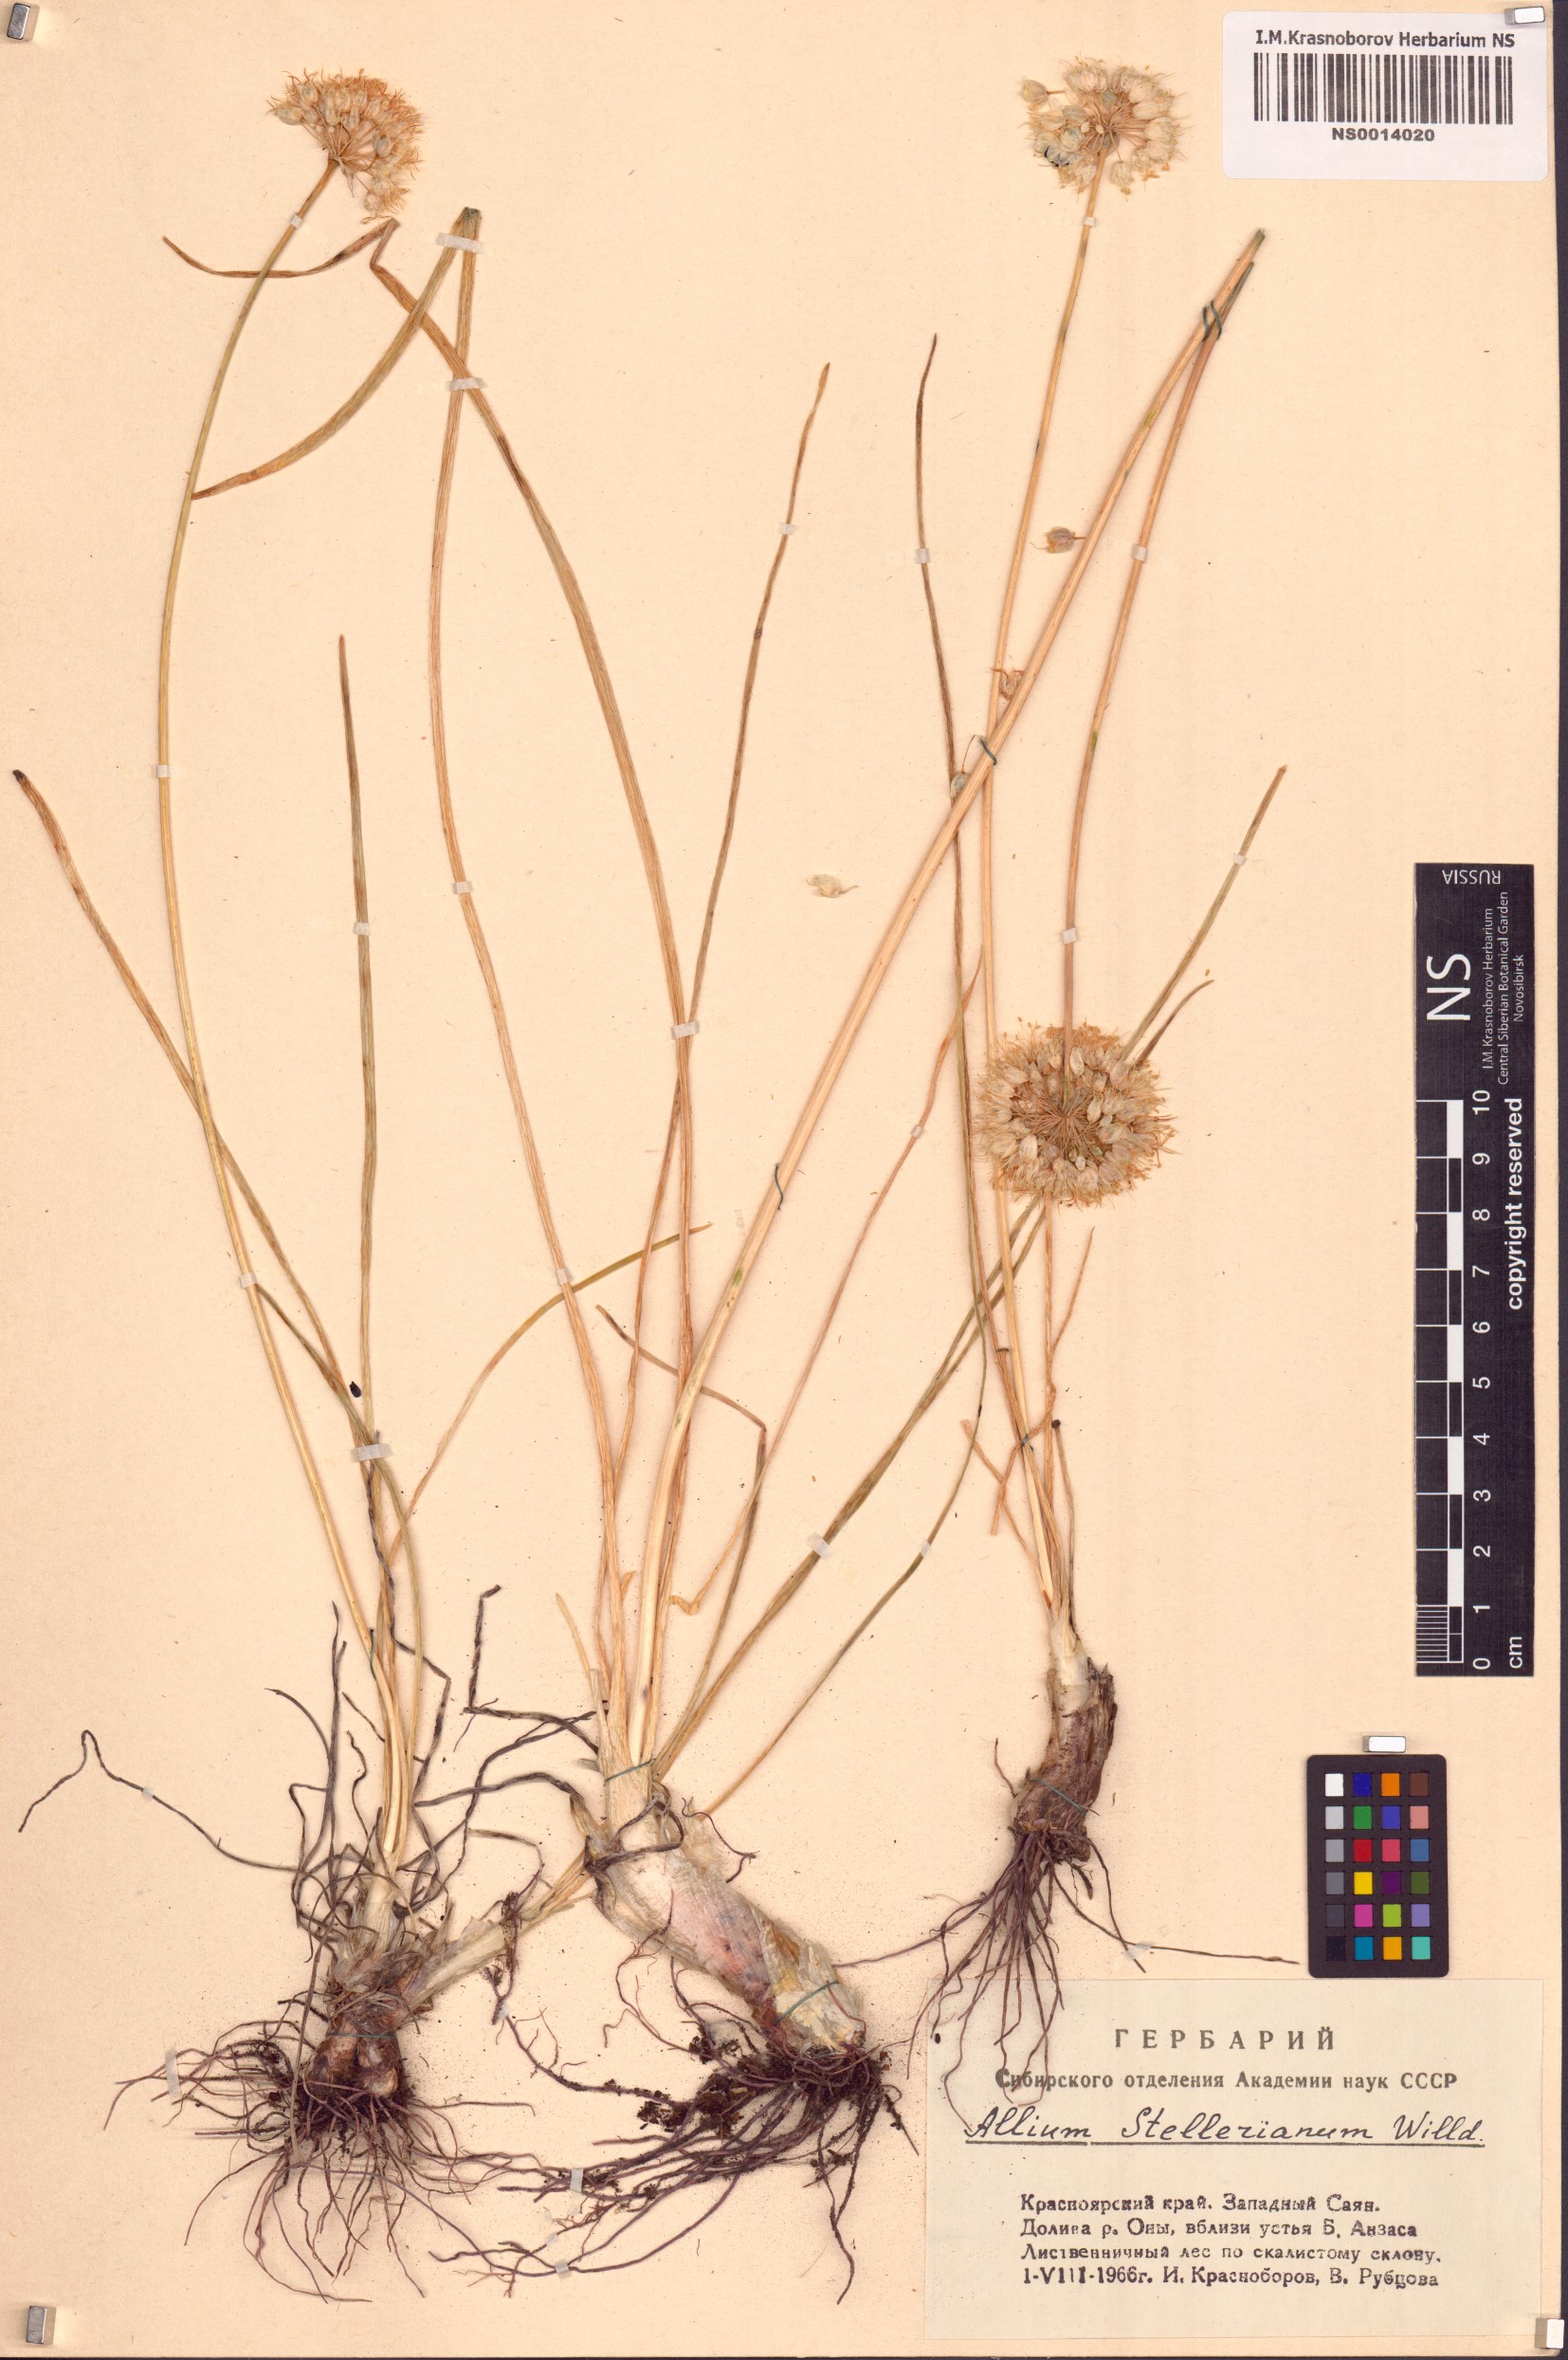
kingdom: Plantae
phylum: Tracheophyta
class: Liliopsida
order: Asparagales
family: Amaryllidaceae
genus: Allium
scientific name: Allium stellerianum
